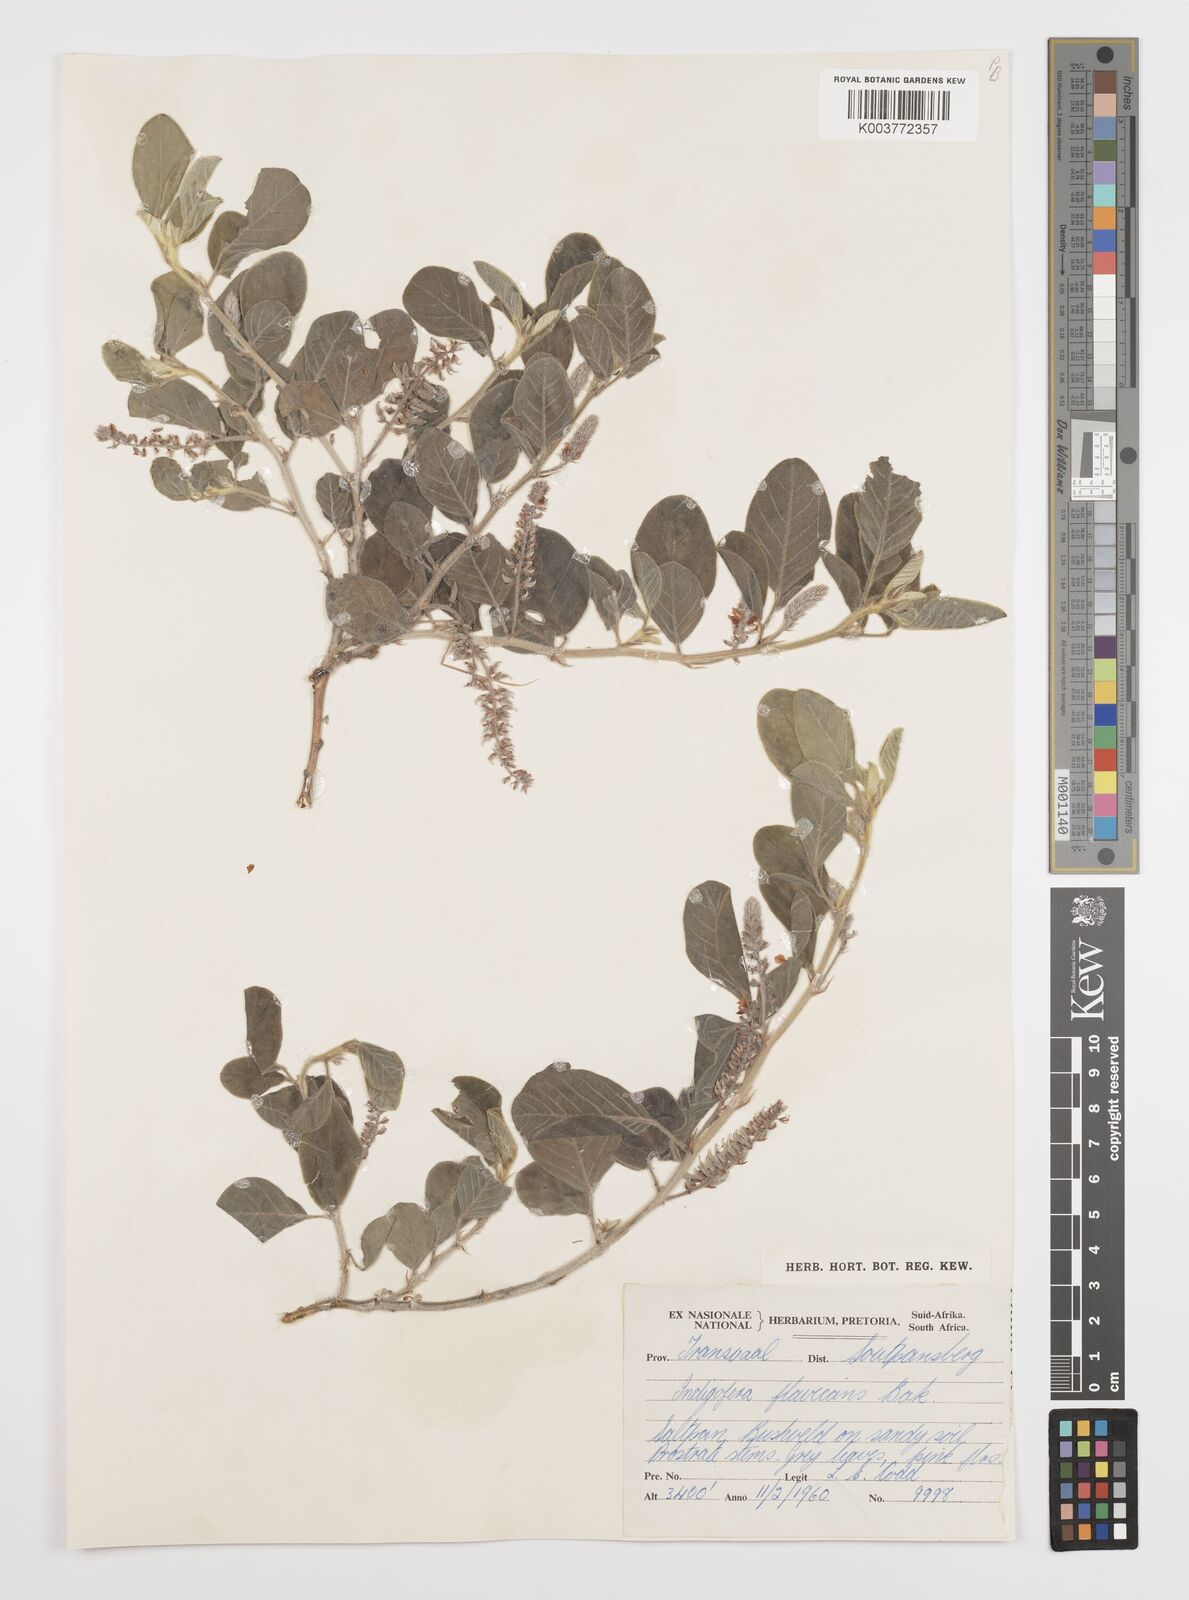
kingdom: Plantae
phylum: Tracheophyta
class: Magnoliopsida
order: Fabales
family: Fabaceae
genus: Indigofera
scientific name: Indigofera flavicans
